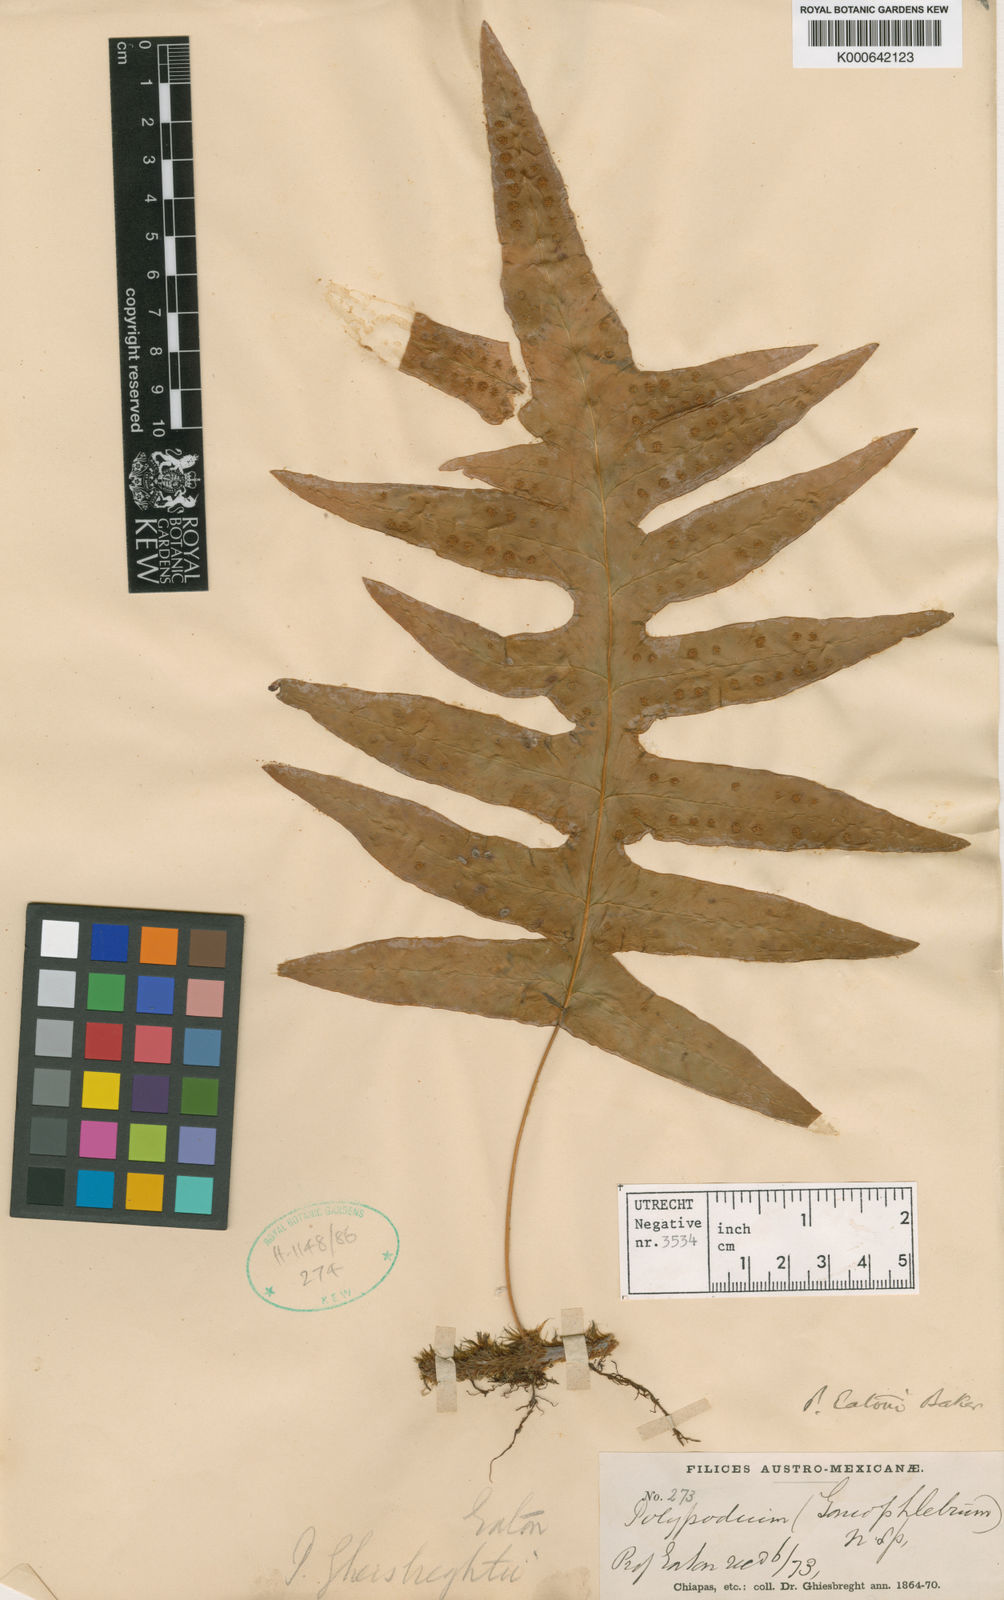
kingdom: Plantae
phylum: Tracheophyta
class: Polypodiopsida
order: Polypodiales
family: Polypodiaceae
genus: Polypodium
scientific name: Polypodium eatonii
